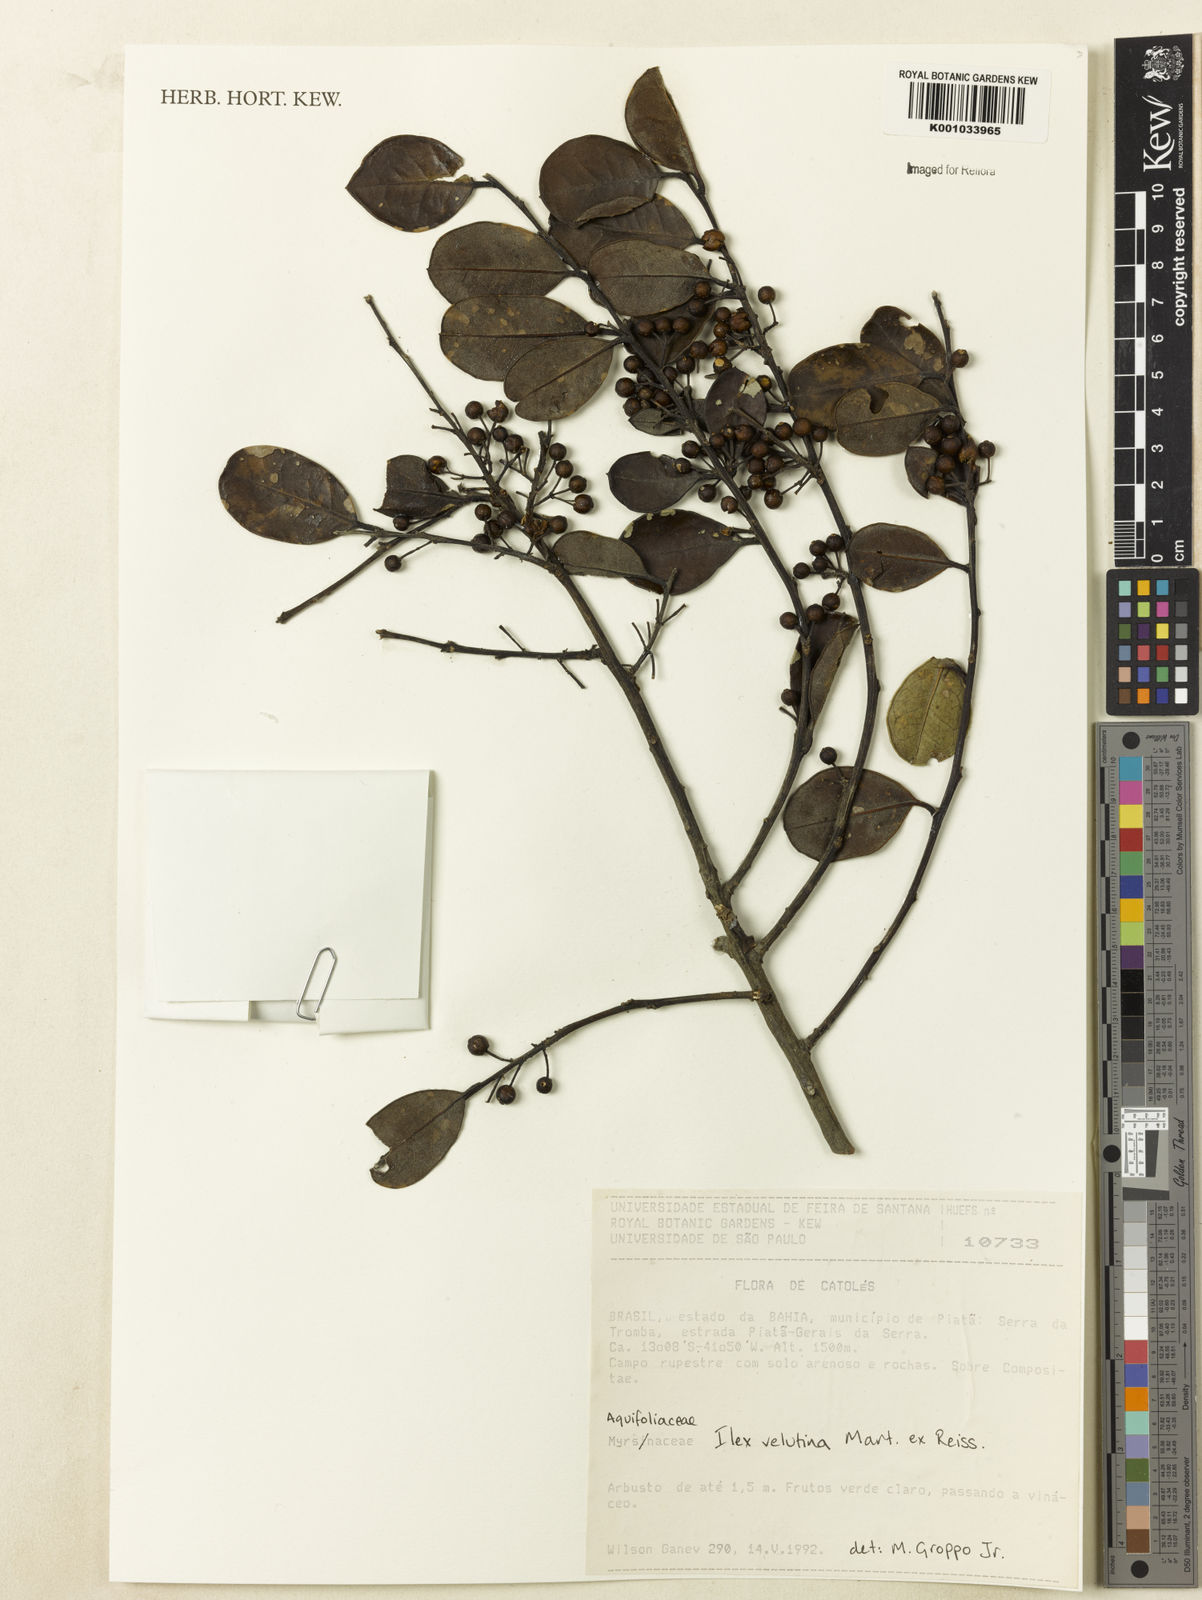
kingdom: Plantae
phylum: Tracheophyta
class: Magnoliopsida
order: Aquifoliales
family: Aquifoliaceae
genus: Ilex
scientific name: Ilex velutina
